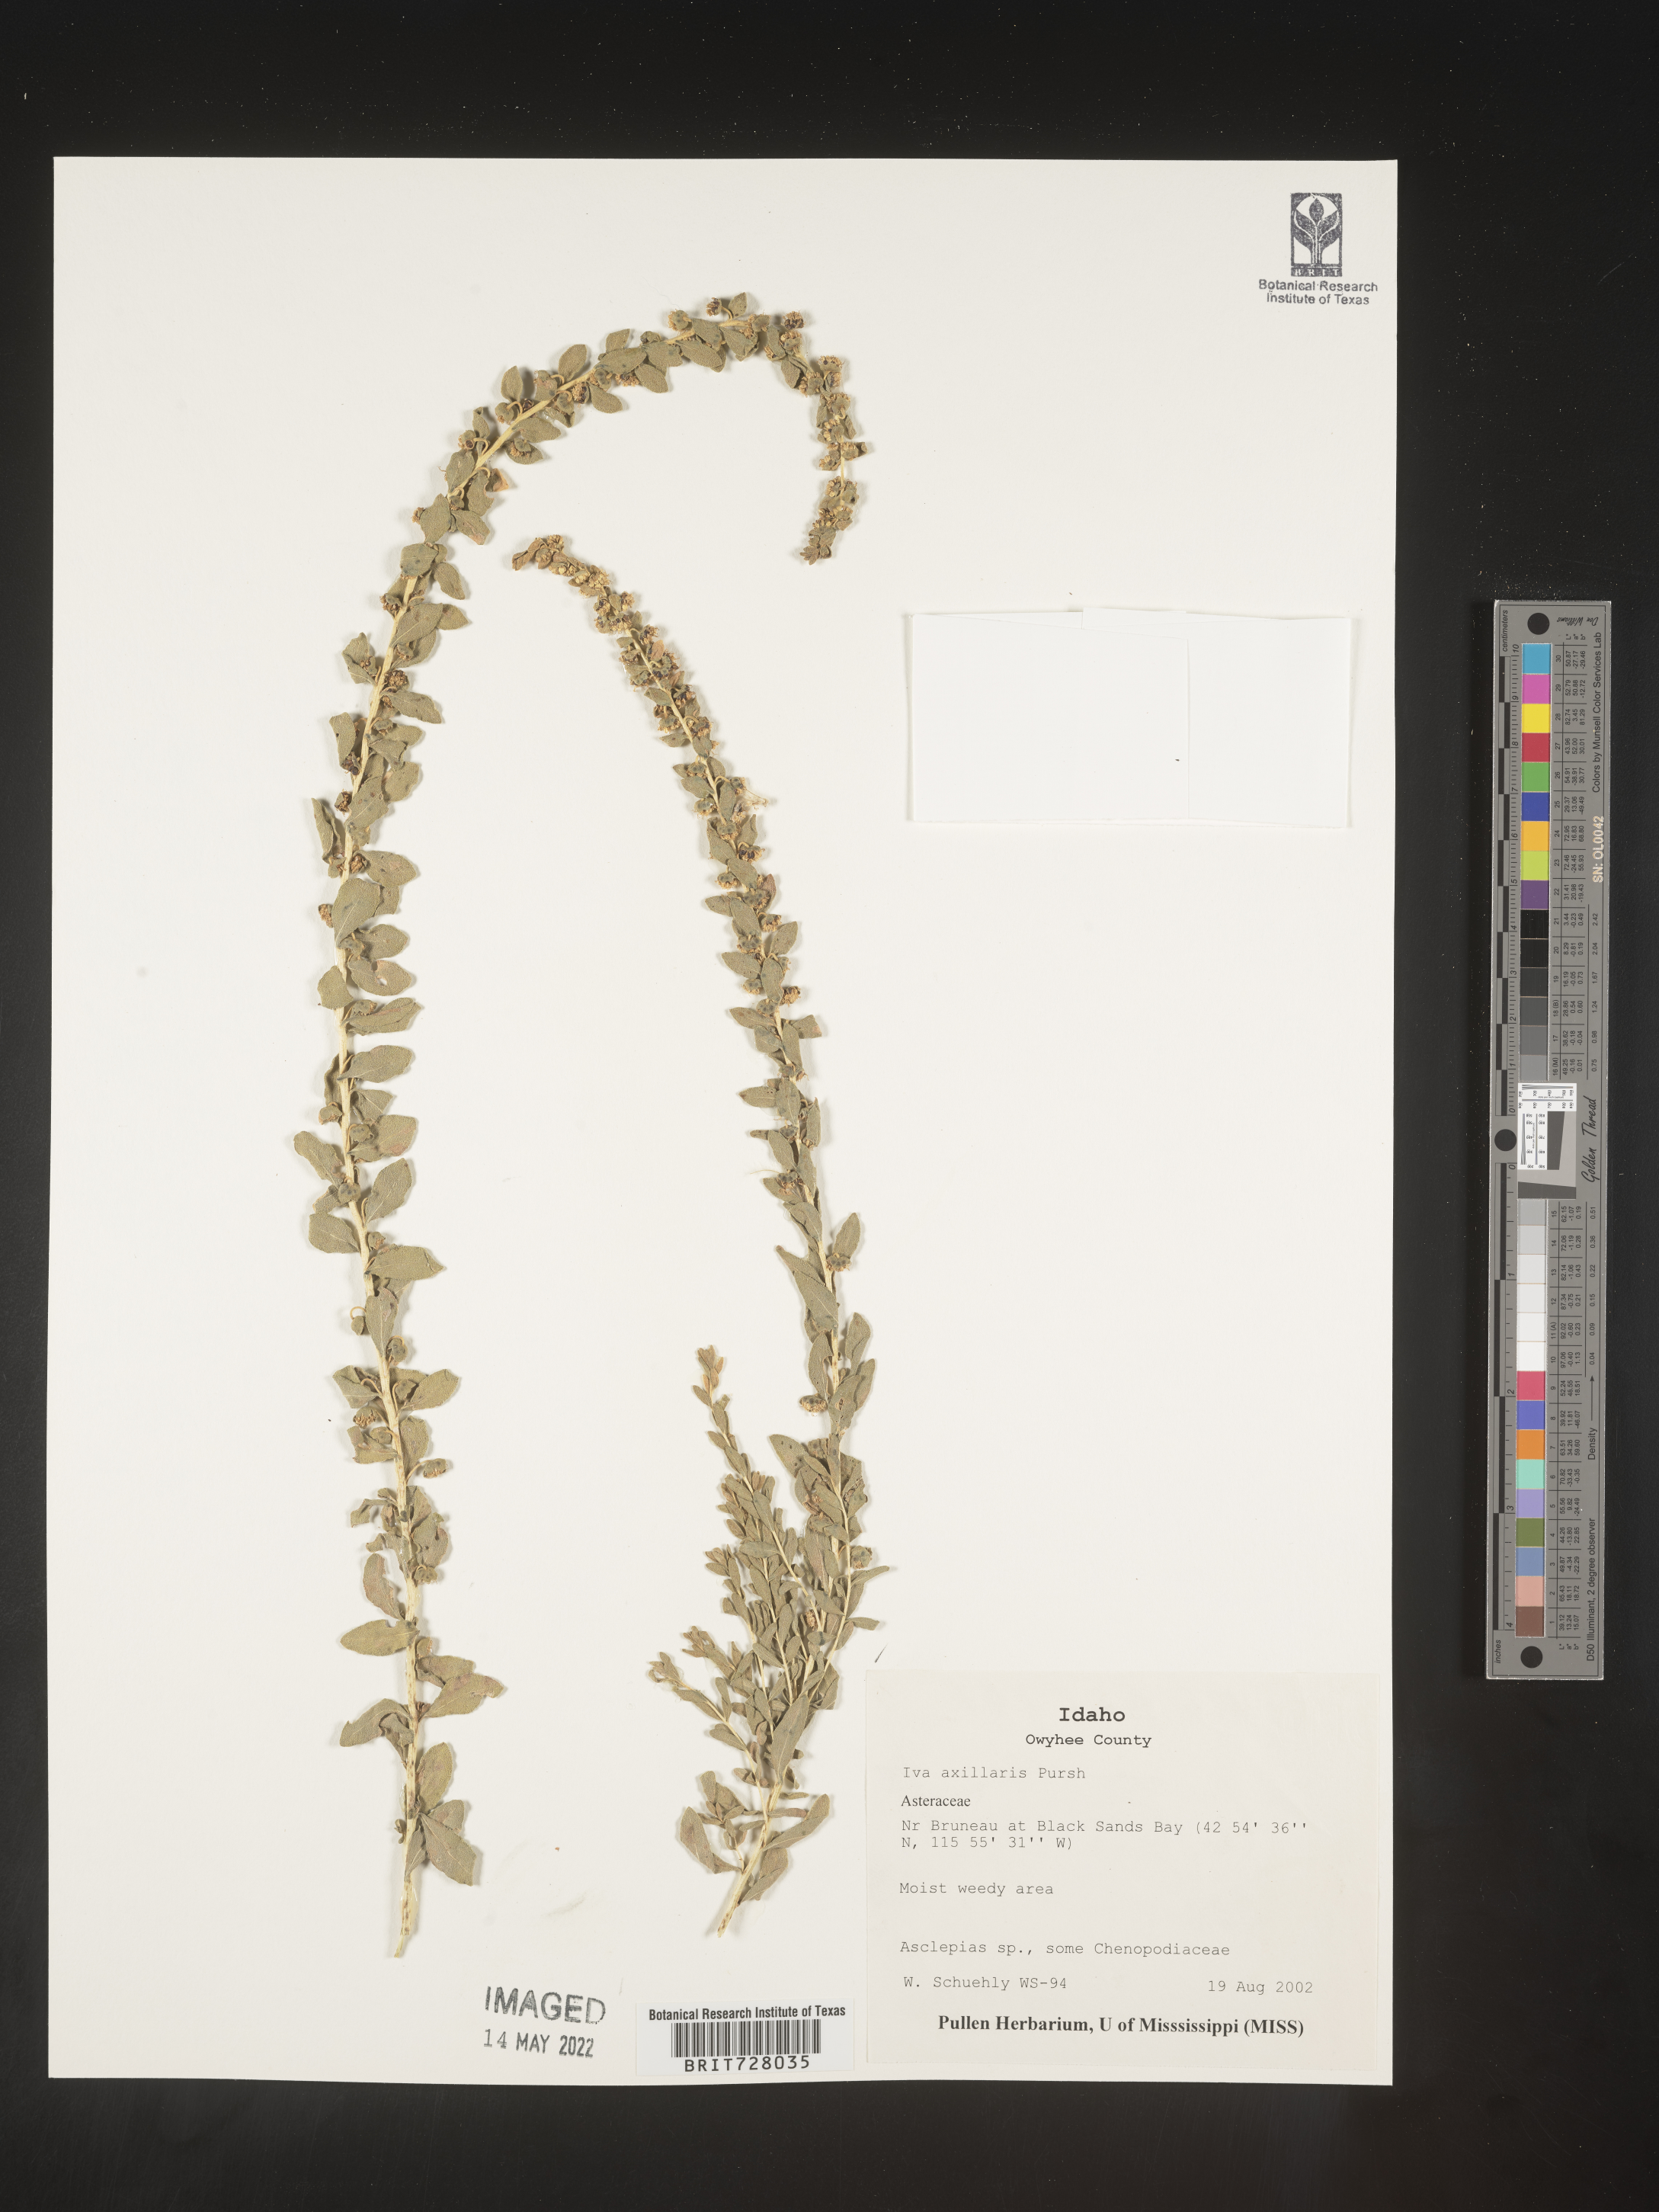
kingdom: Plantae
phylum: Tracheophyta
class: Magnoliopsida
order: Asterales
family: Asteraceae
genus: Iva
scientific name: Iva axillaris
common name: Poverty sumpweed
